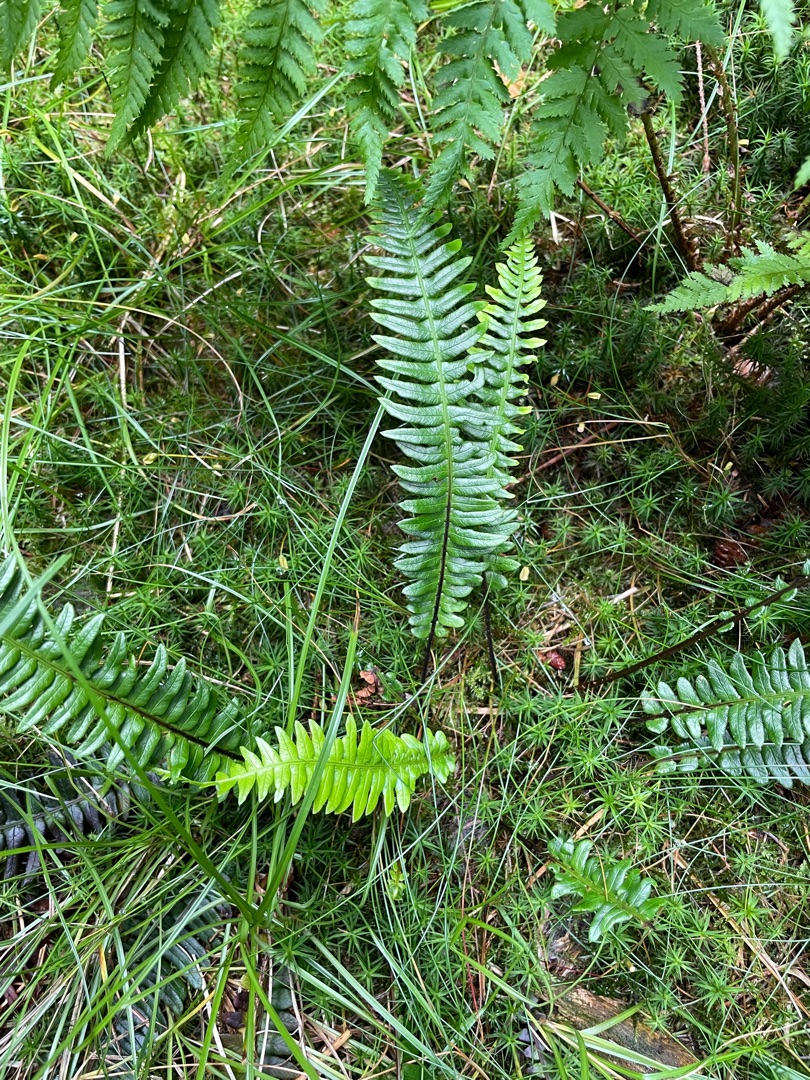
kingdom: Plantae
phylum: Tracheophyta
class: Polypodiopsida
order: Polypodiales
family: Blechnaceae
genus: Struthiopteris
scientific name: Struthiopteris spicant
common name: Kambregne
